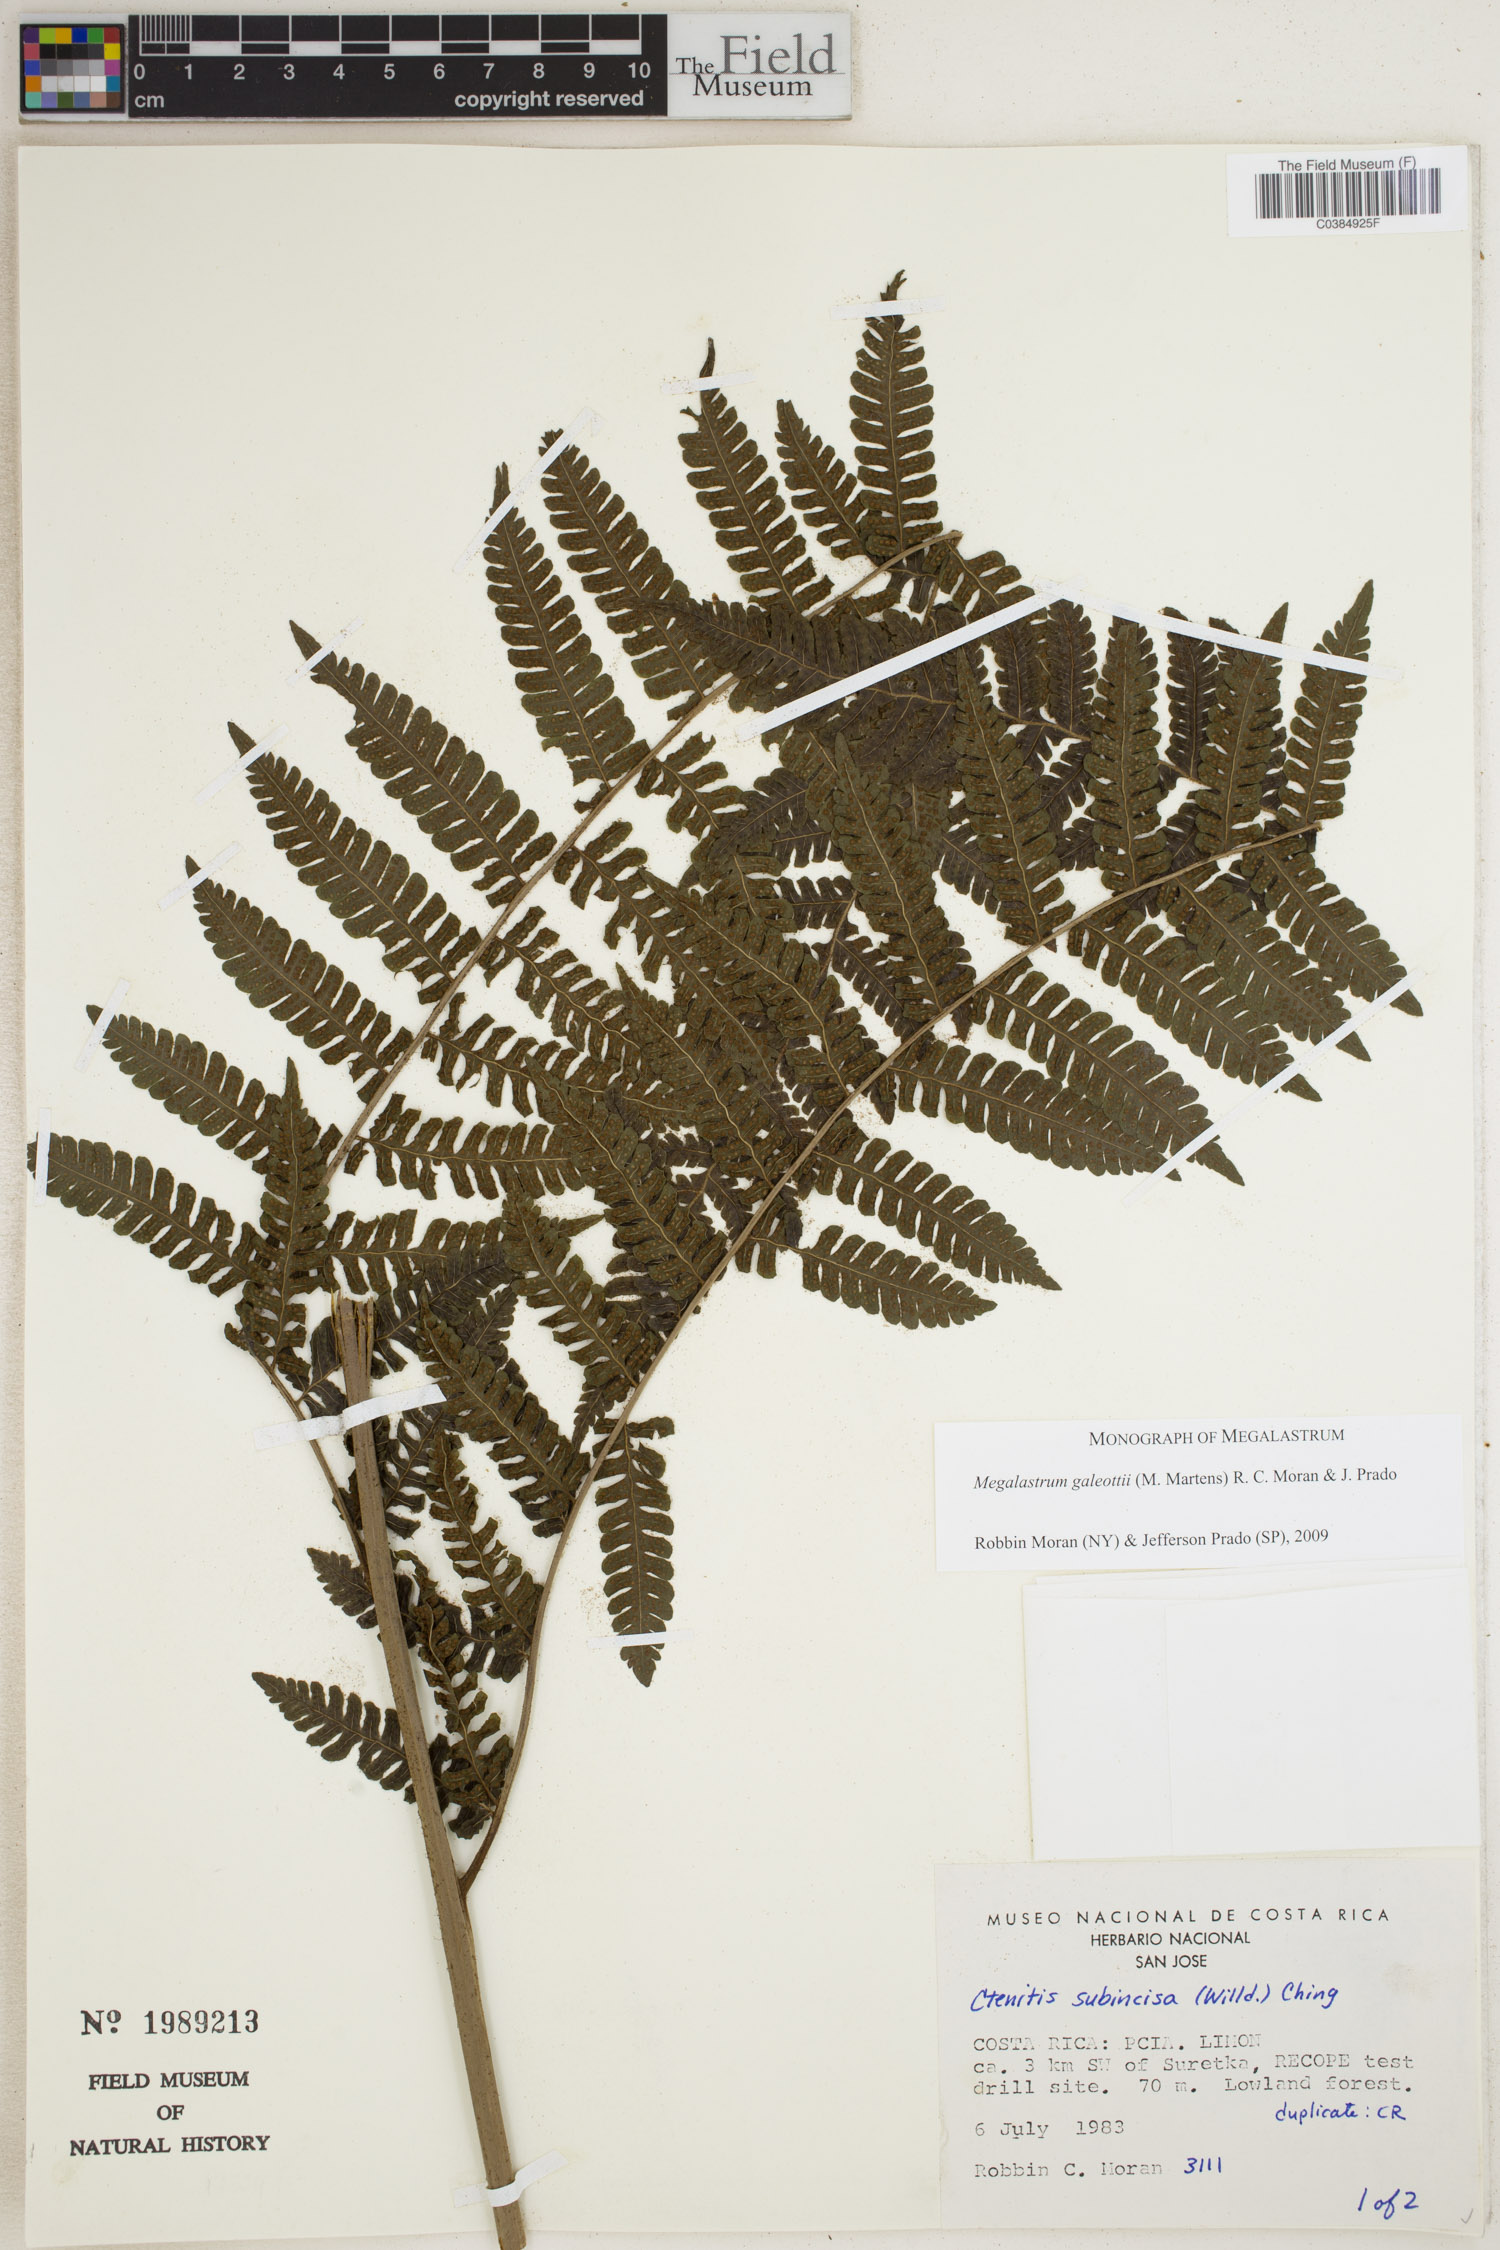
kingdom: Plantae
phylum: Tracheophyta
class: Polypodiopsida
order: Polypodiales
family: Dryopteridaceae
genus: Megalastrum
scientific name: Megalastrum galeottii
